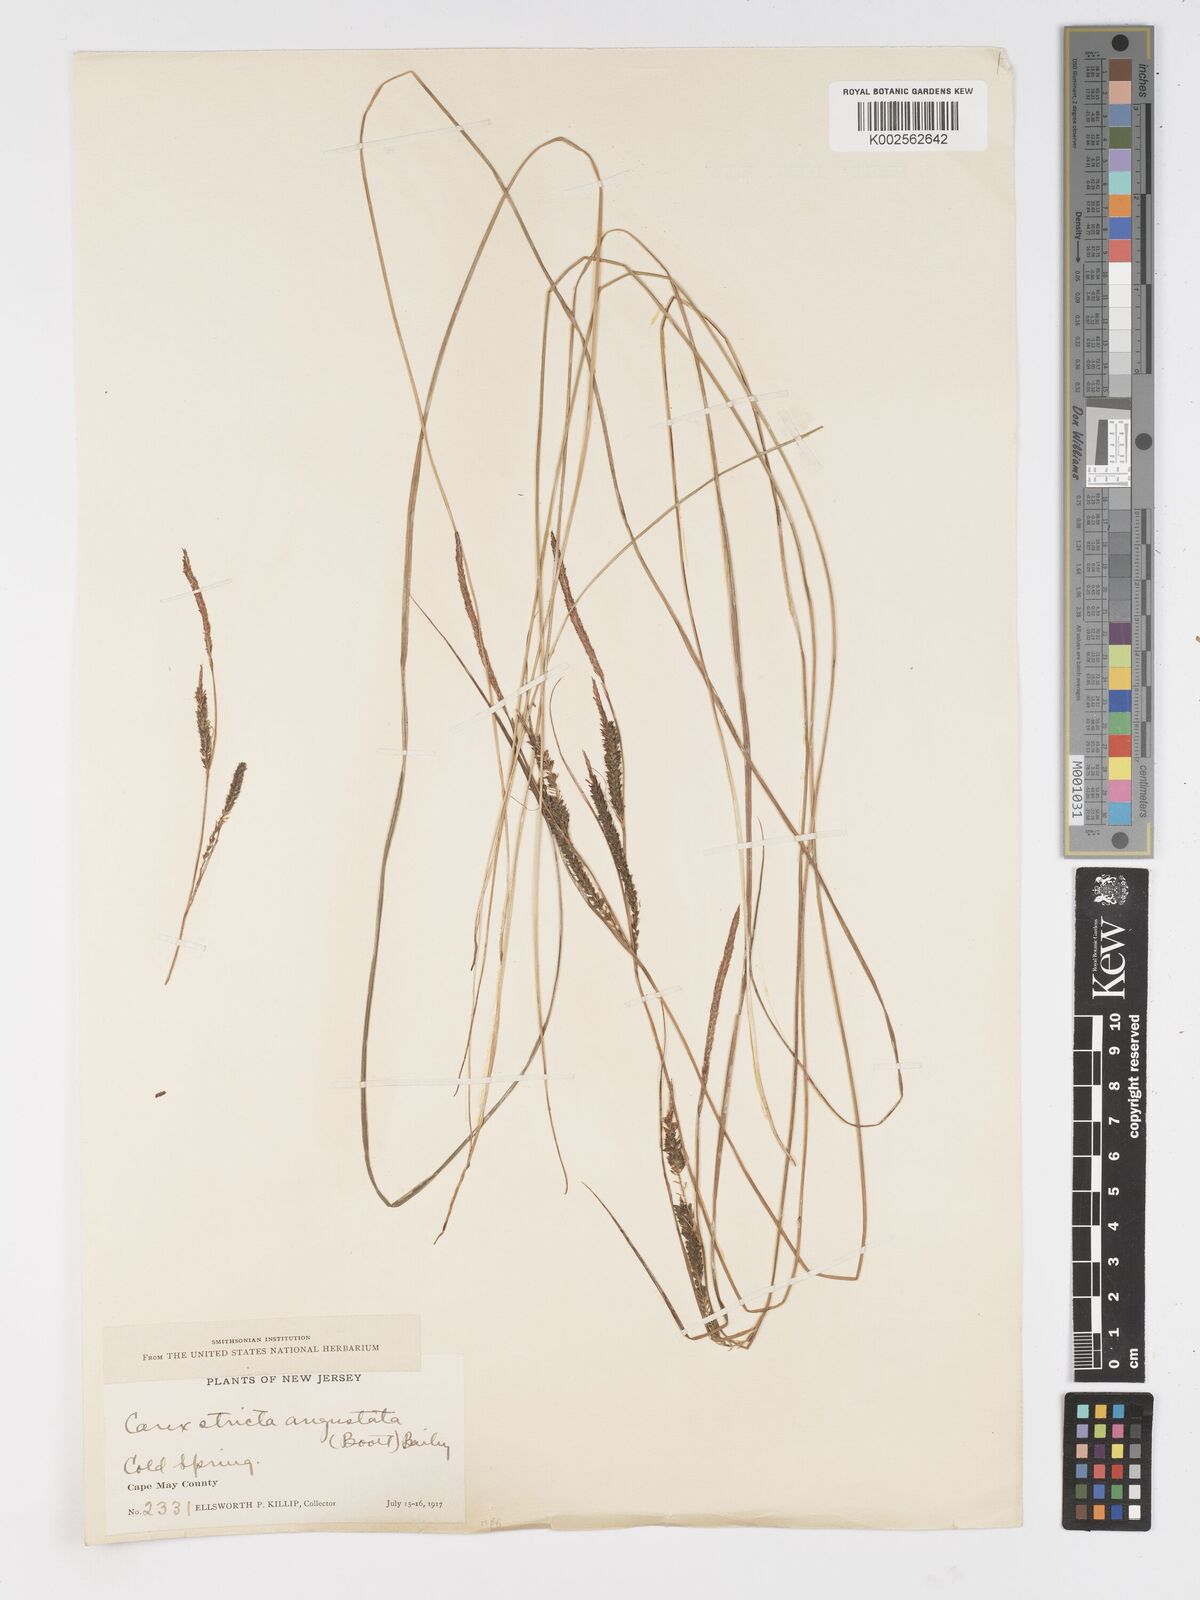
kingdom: Plantae
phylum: Tracheophyta
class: Liliopsida
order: Poales
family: Cyperaceae
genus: Carex
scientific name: Carex stricta
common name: Hummock sedge
